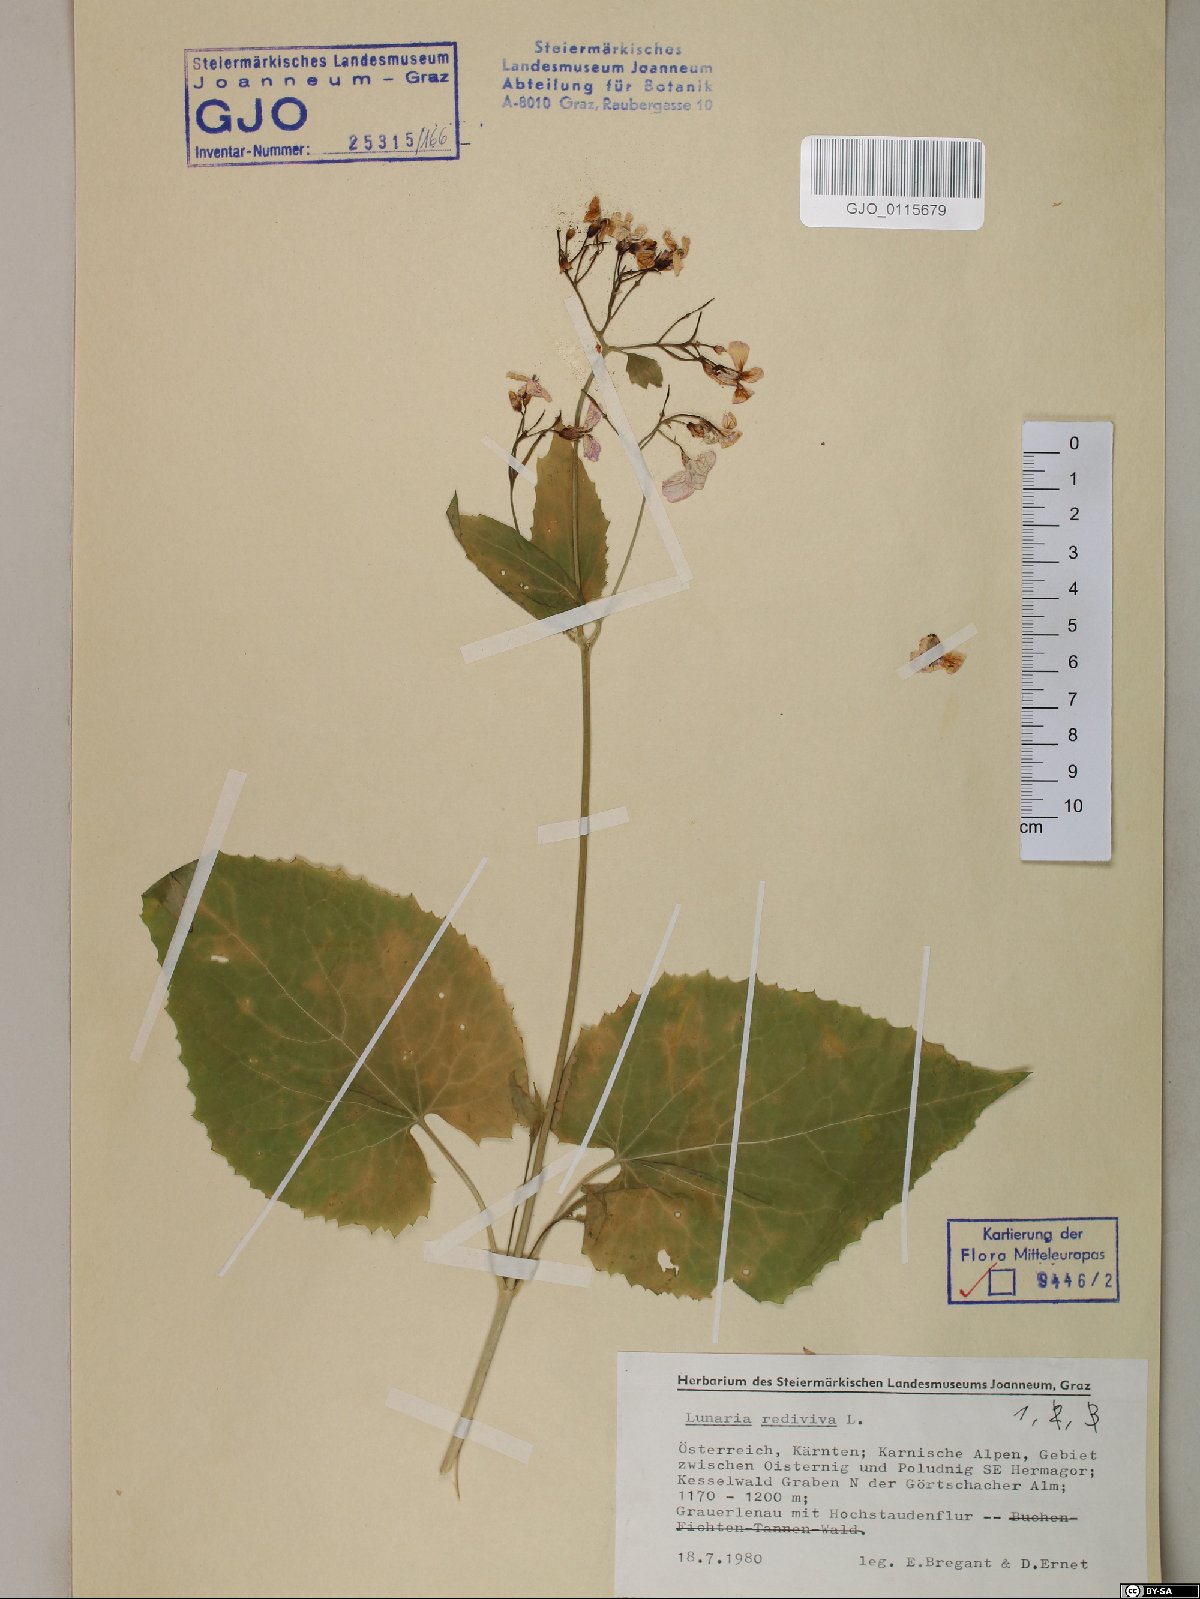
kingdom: Plantae
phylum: Tracheophyta
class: Magnoliopsida
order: Brassicales
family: Brassicaceae
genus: Lunaria
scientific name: Lunaria rediviva
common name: Perennial honesty
